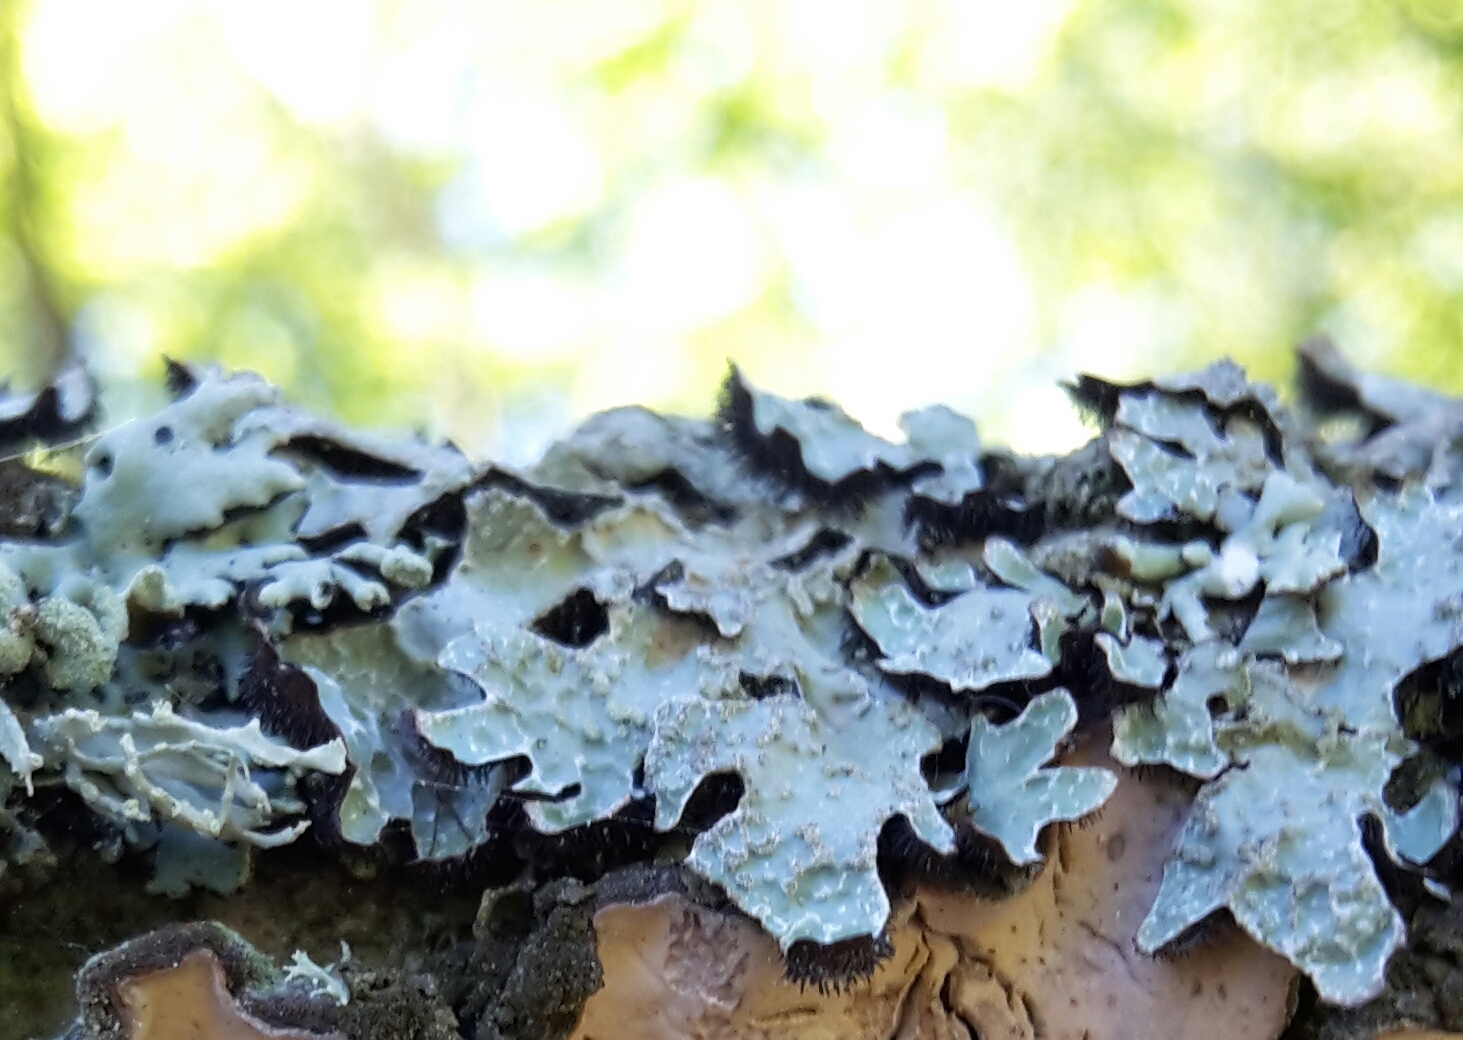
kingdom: Fungi
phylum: Ascomycota
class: Lecanoromycetes
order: Lecanorales
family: Parmeliaceae
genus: Parmelia
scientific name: Parmelia sulcata
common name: rynket skållav
